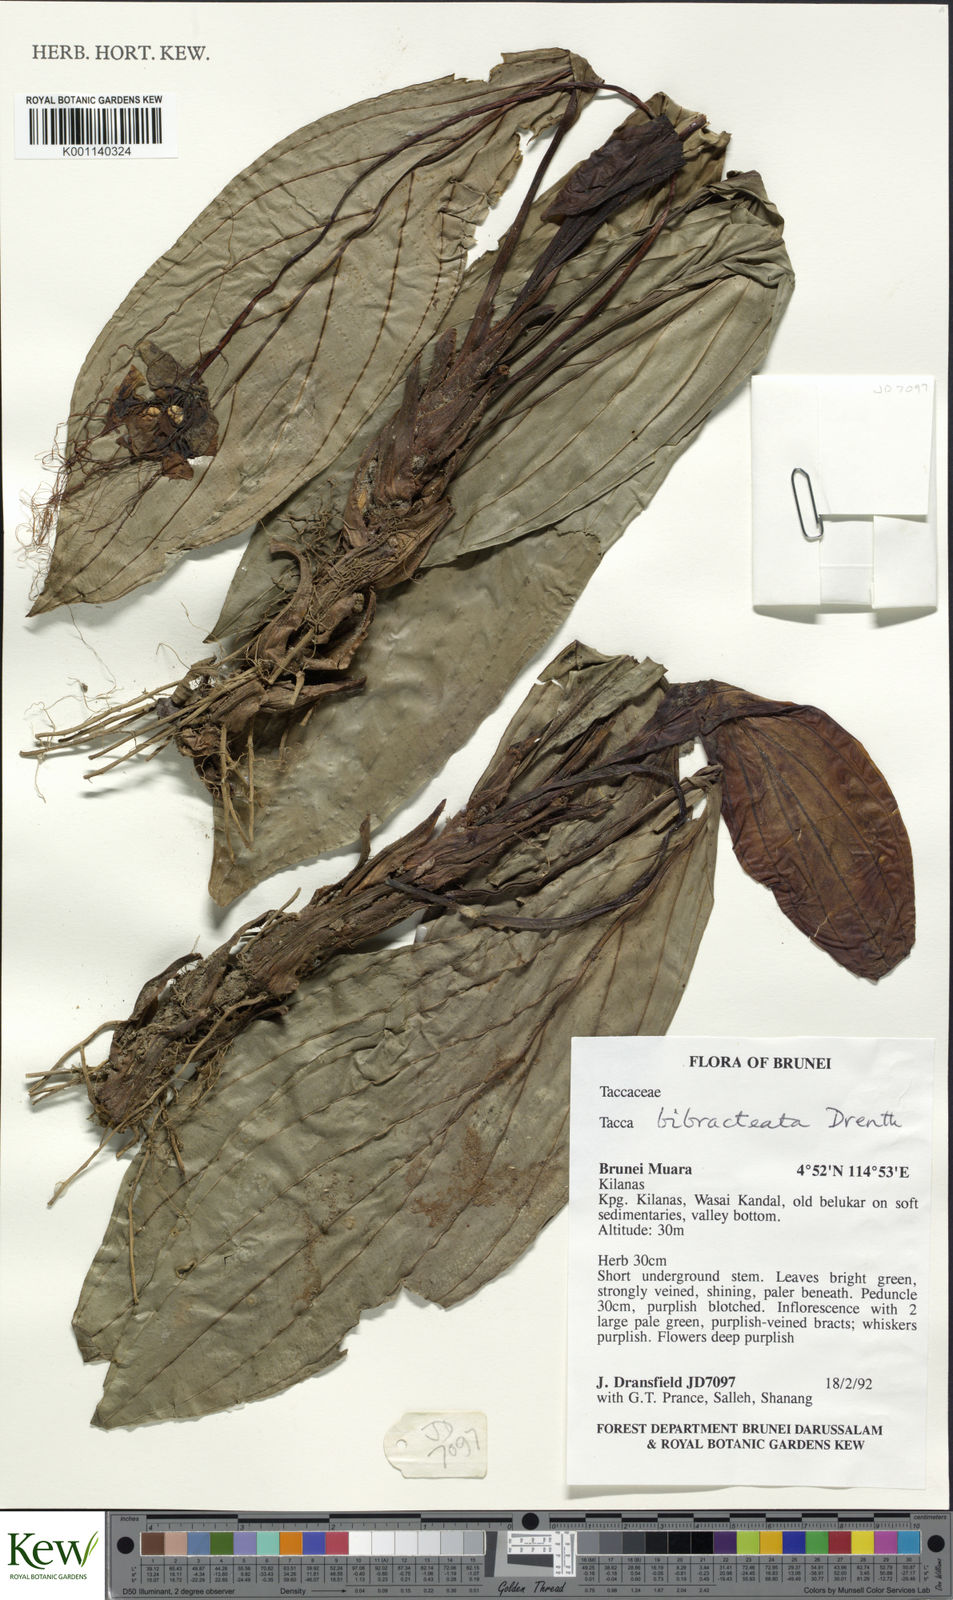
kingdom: Plantae
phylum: Tracheophyta
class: Liliopsida
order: Dioscoreales
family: Dioscoreaceae
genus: Tacca
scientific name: Tacca bibracteata
